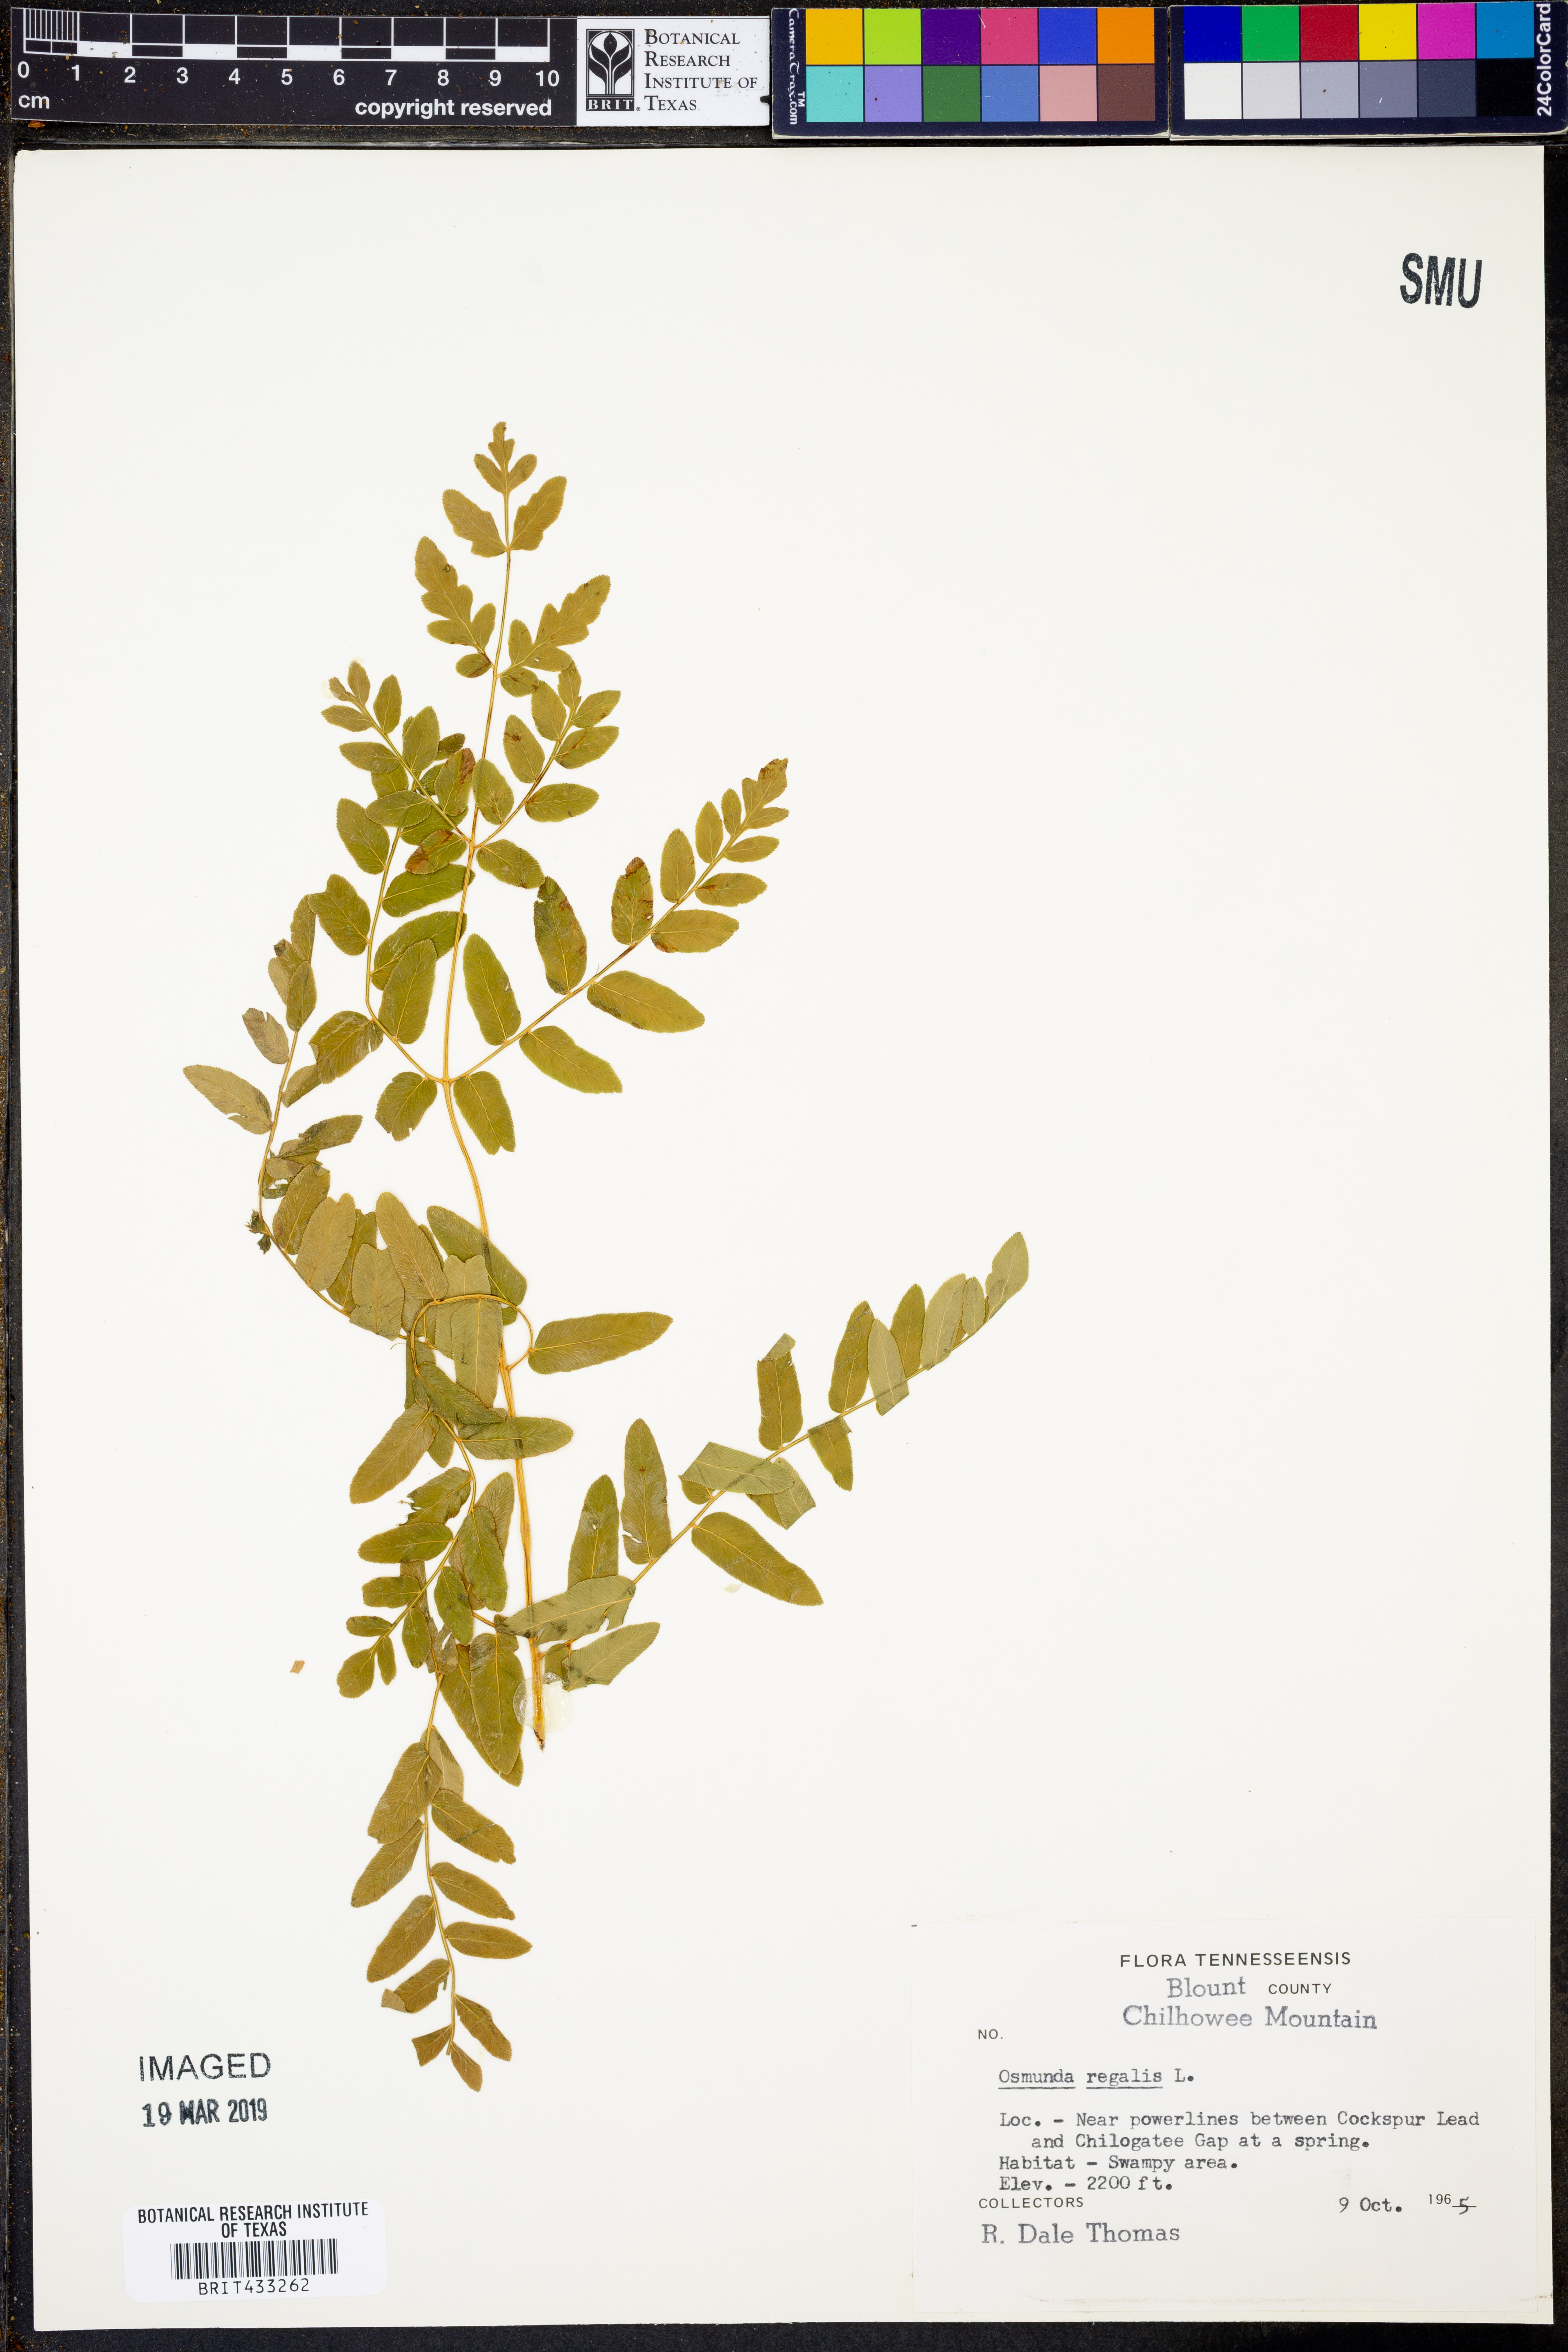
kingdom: Plantae
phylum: Tracheophyta
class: Polypodiopsida
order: Osmundales
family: Osmundaceae
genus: Osmunda
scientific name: Osmunda regalis
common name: Royal fern
